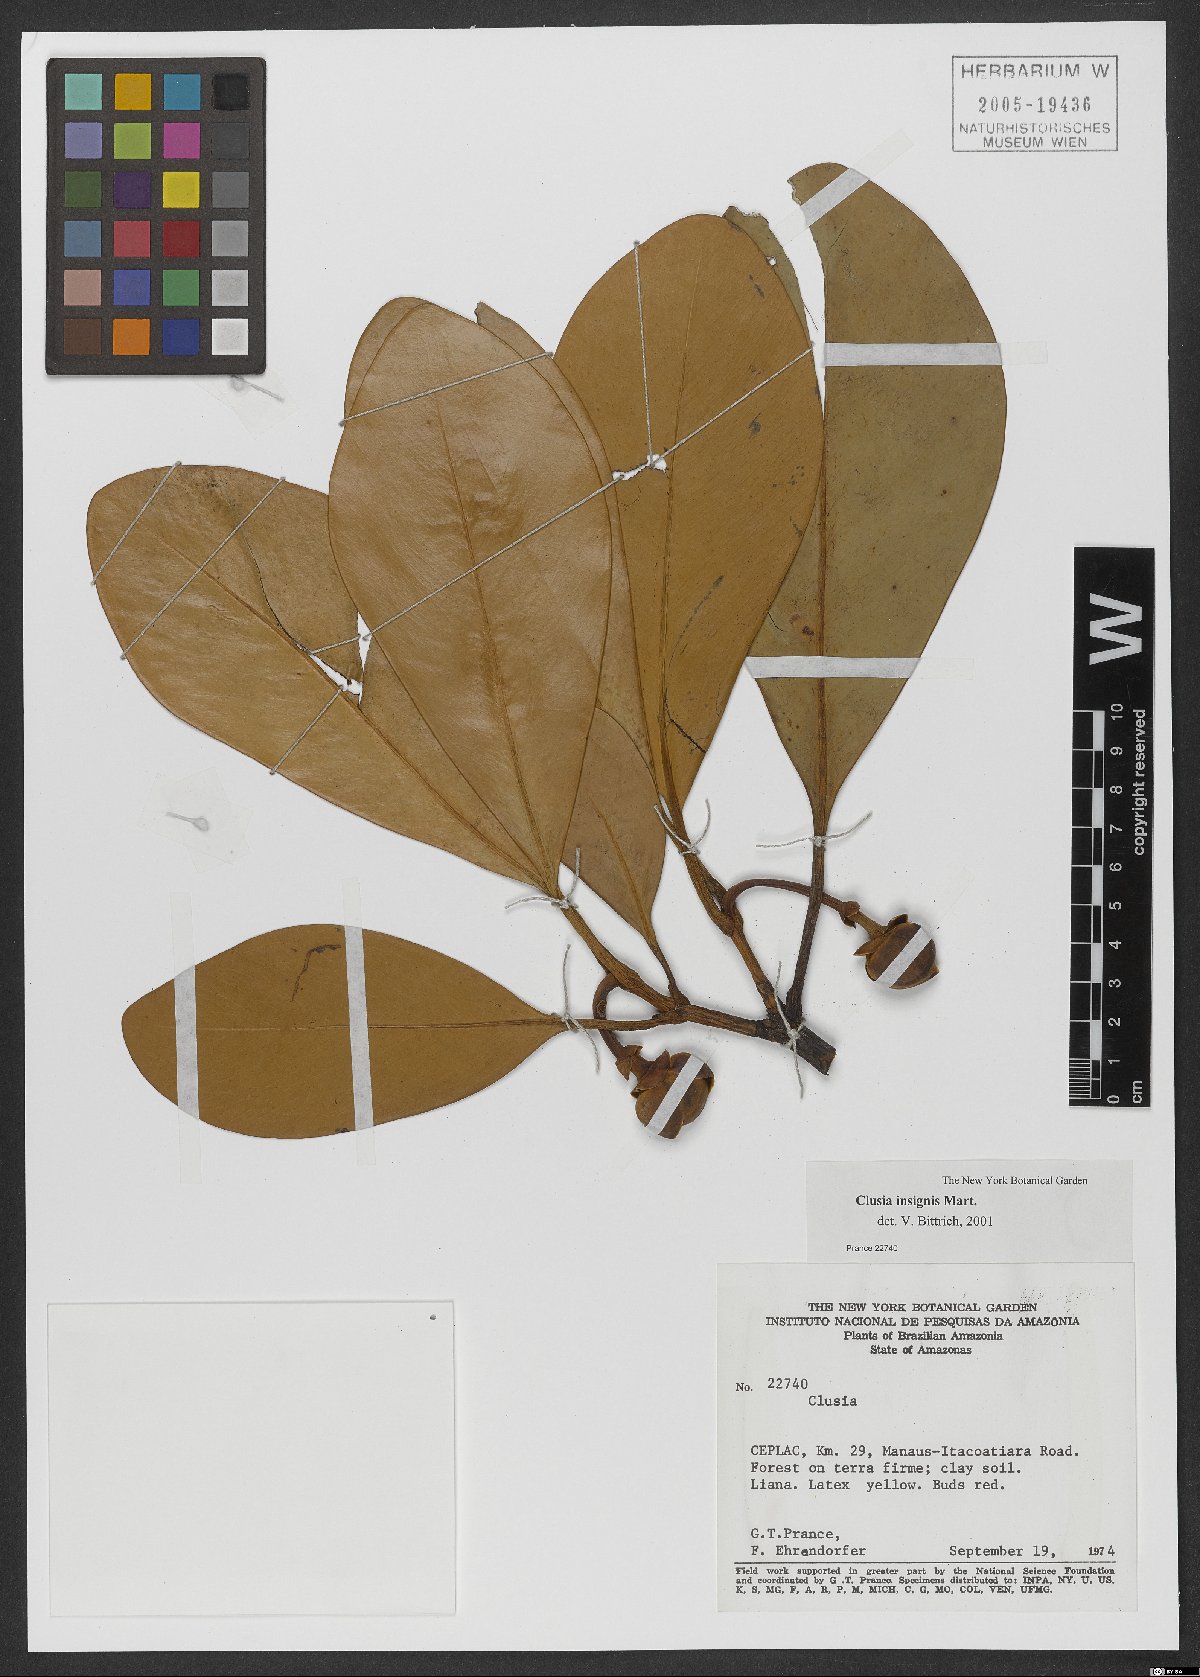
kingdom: Plantae
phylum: Tracheophyta
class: Magnoliopsida
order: Malpighiales
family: Clusiaceae
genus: Clusia
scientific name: Clusia insignis
